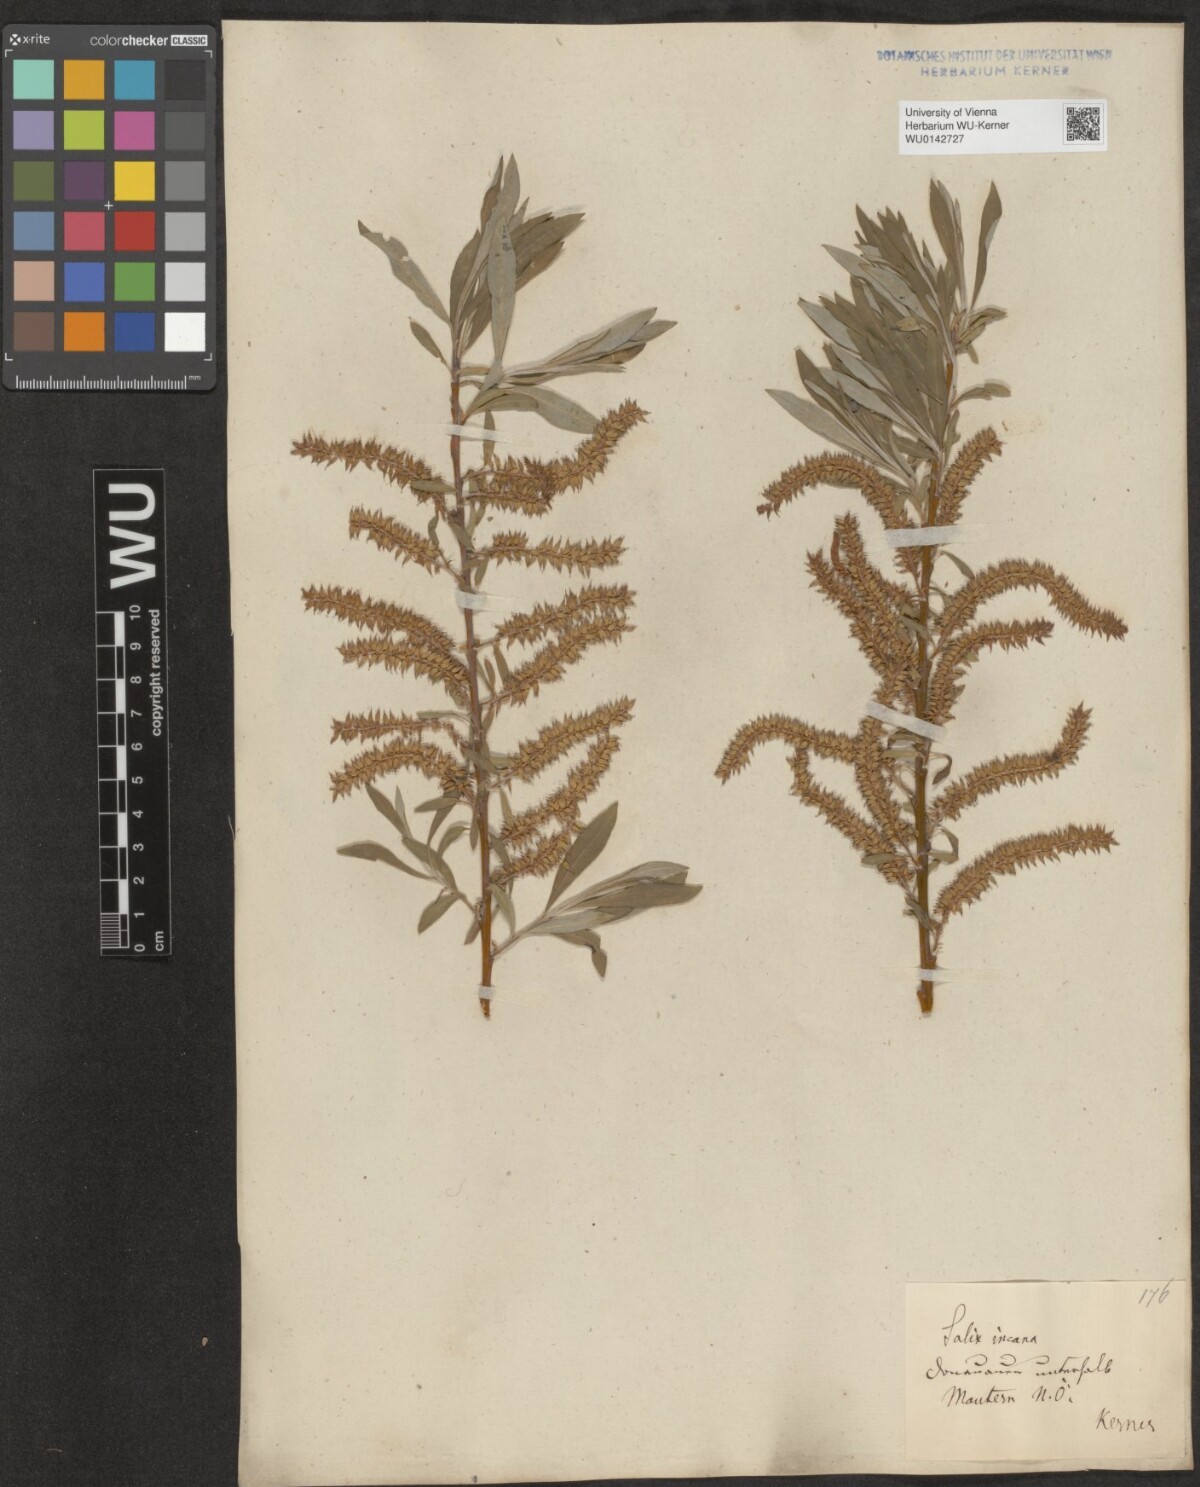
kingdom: Plantae
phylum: Tracheophyta
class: Magnoliopsida
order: Malpighiales
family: Salicaceae
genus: Salix
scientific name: Salix eleagnos
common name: Elaeagnus willow
